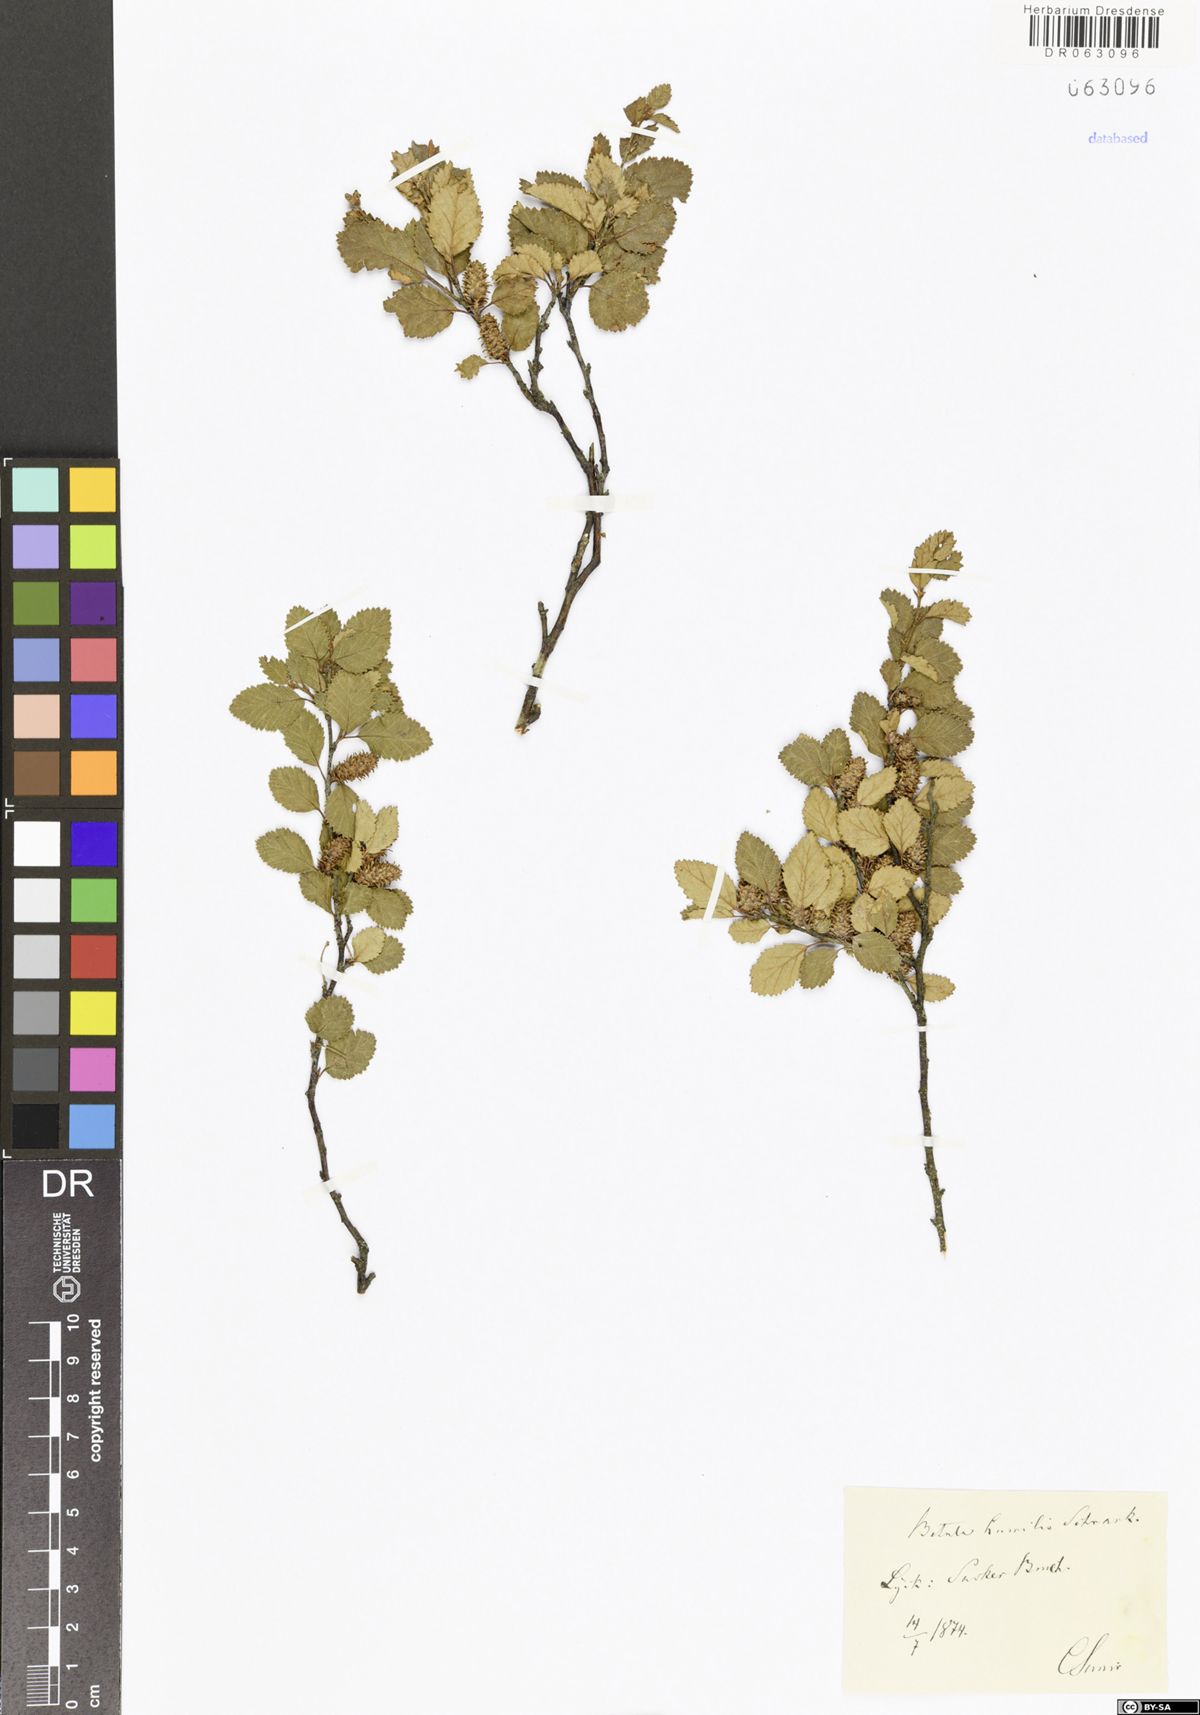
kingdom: Plantae
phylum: Tracheophyta
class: Magnoliopsida
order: Fagales
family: Betulaceae
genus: Betula
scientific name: Betula humilis
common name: Shrubby birch
